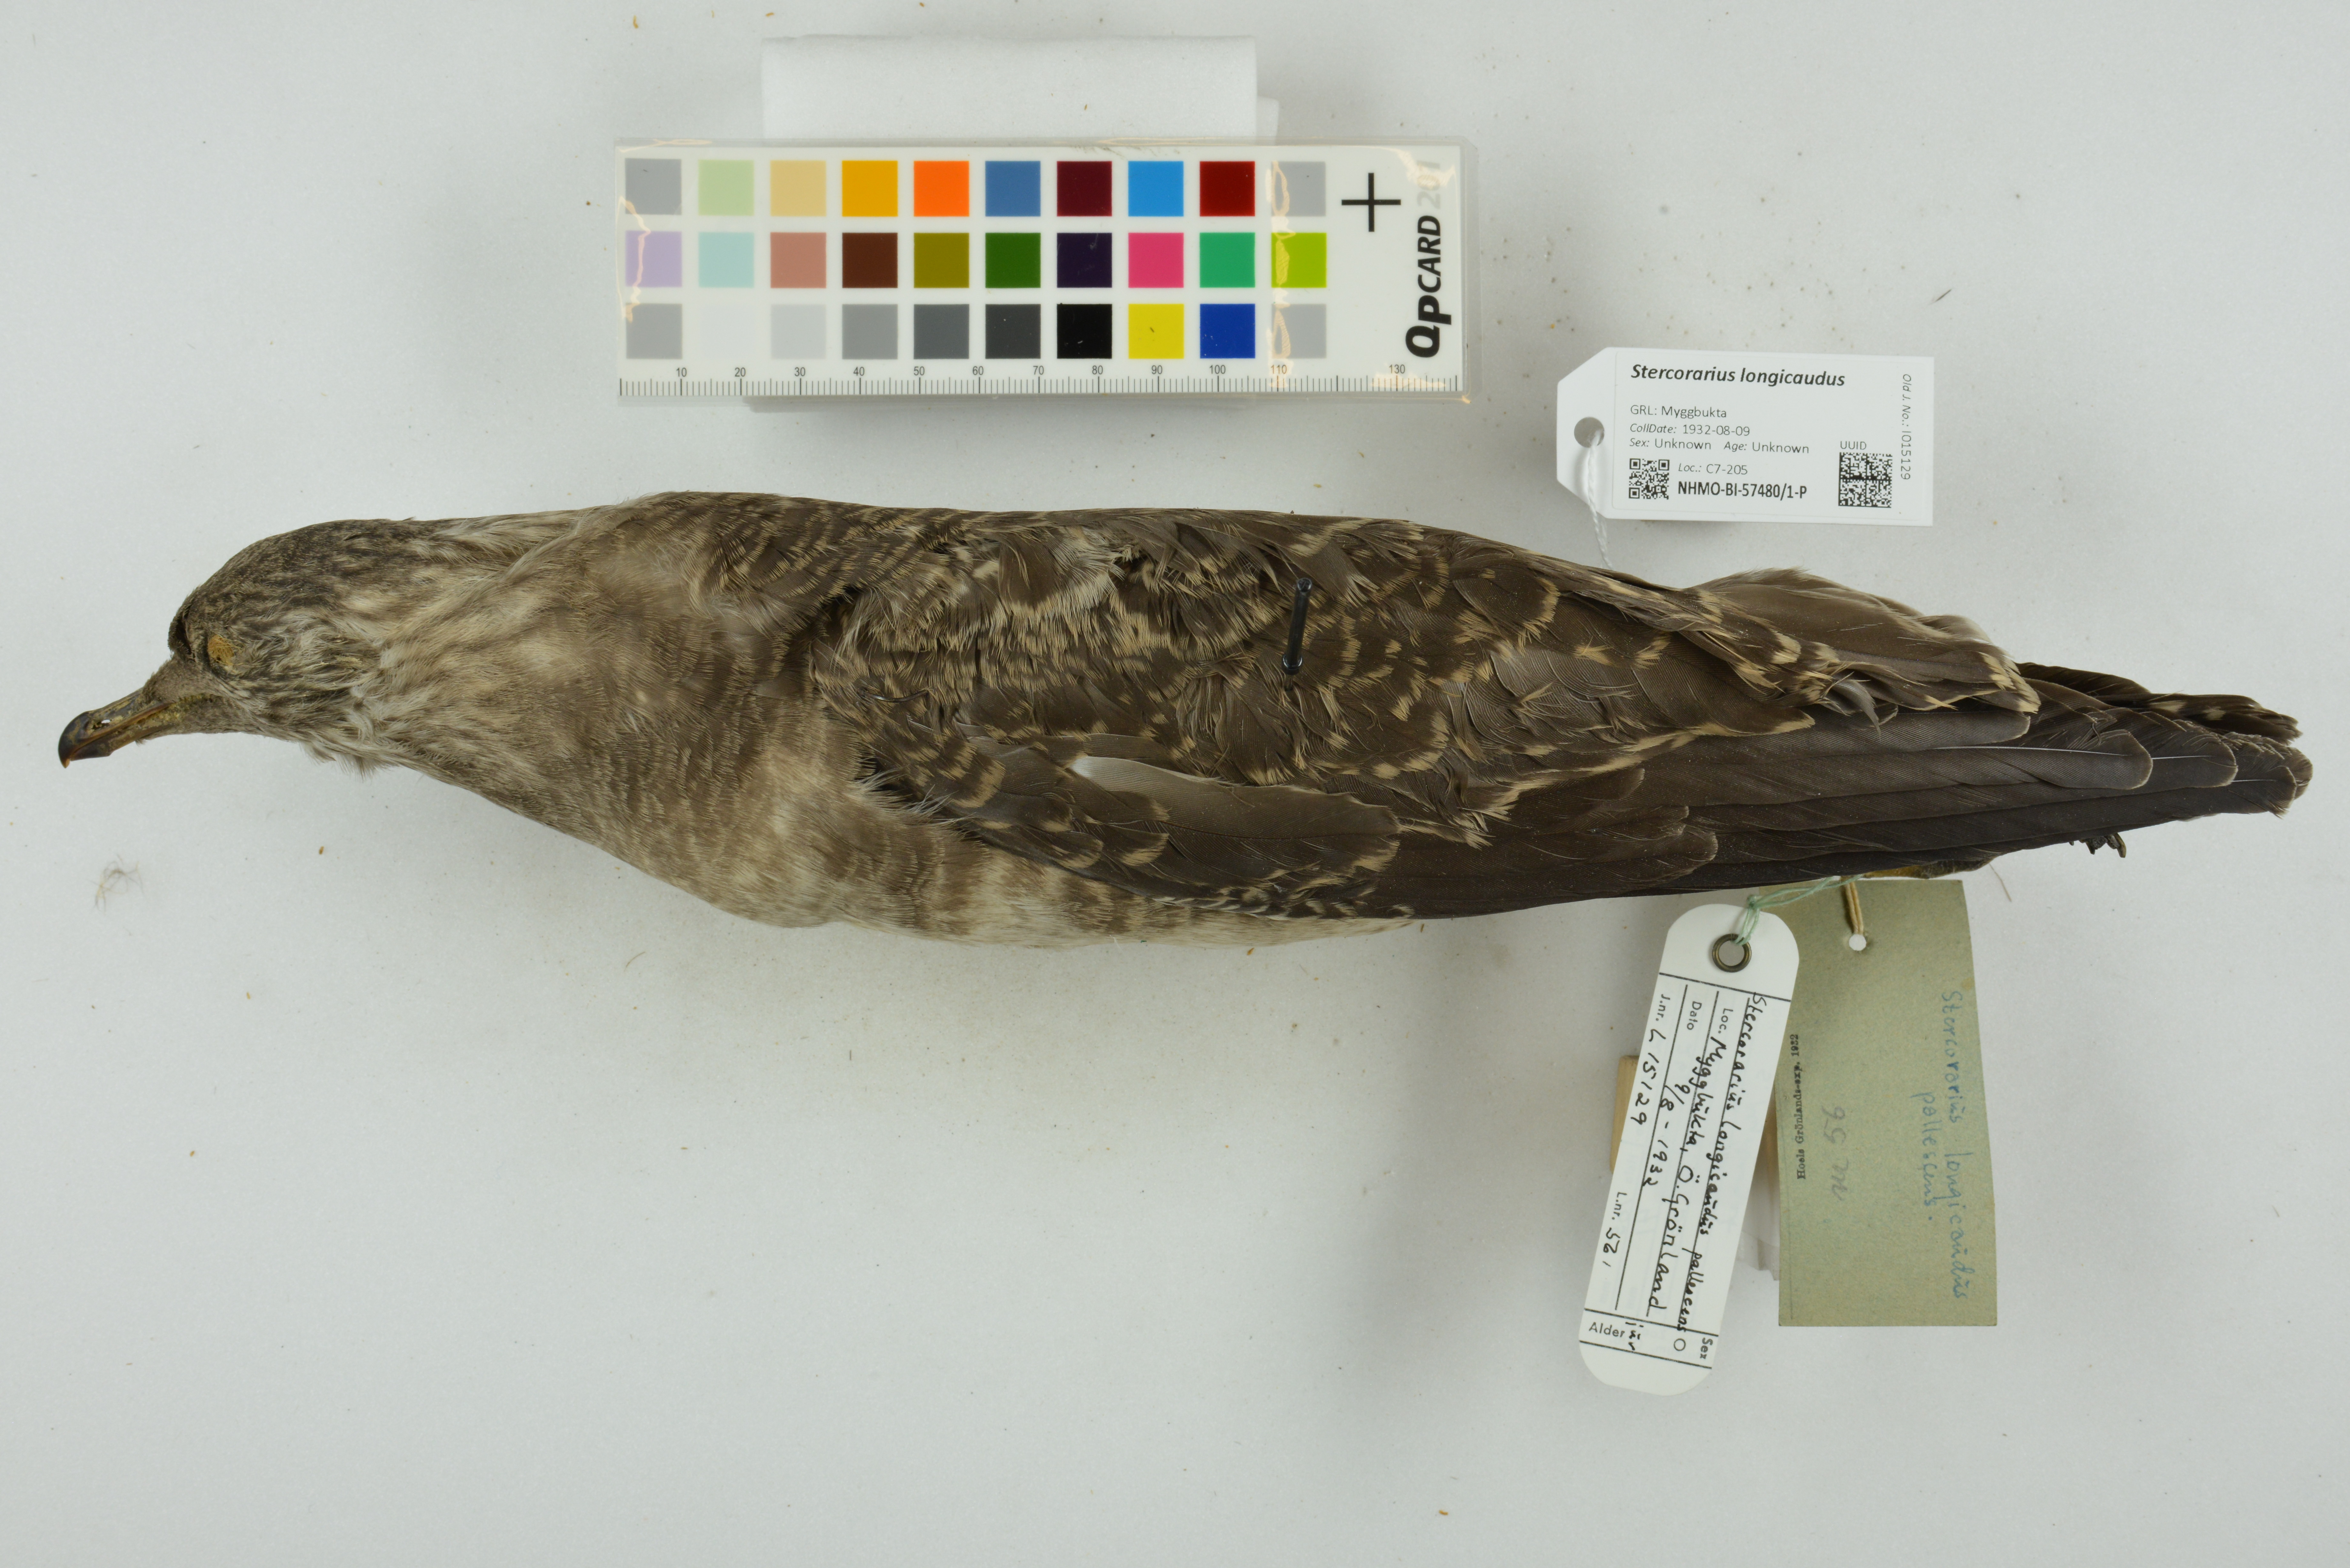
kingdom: Animalia
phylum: Chordata
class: Aves
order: Charadriiformes
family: Stercorariidae
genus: Stercorarius
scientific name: Stercorarius longicaudus
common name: Long-tailed jaeger
